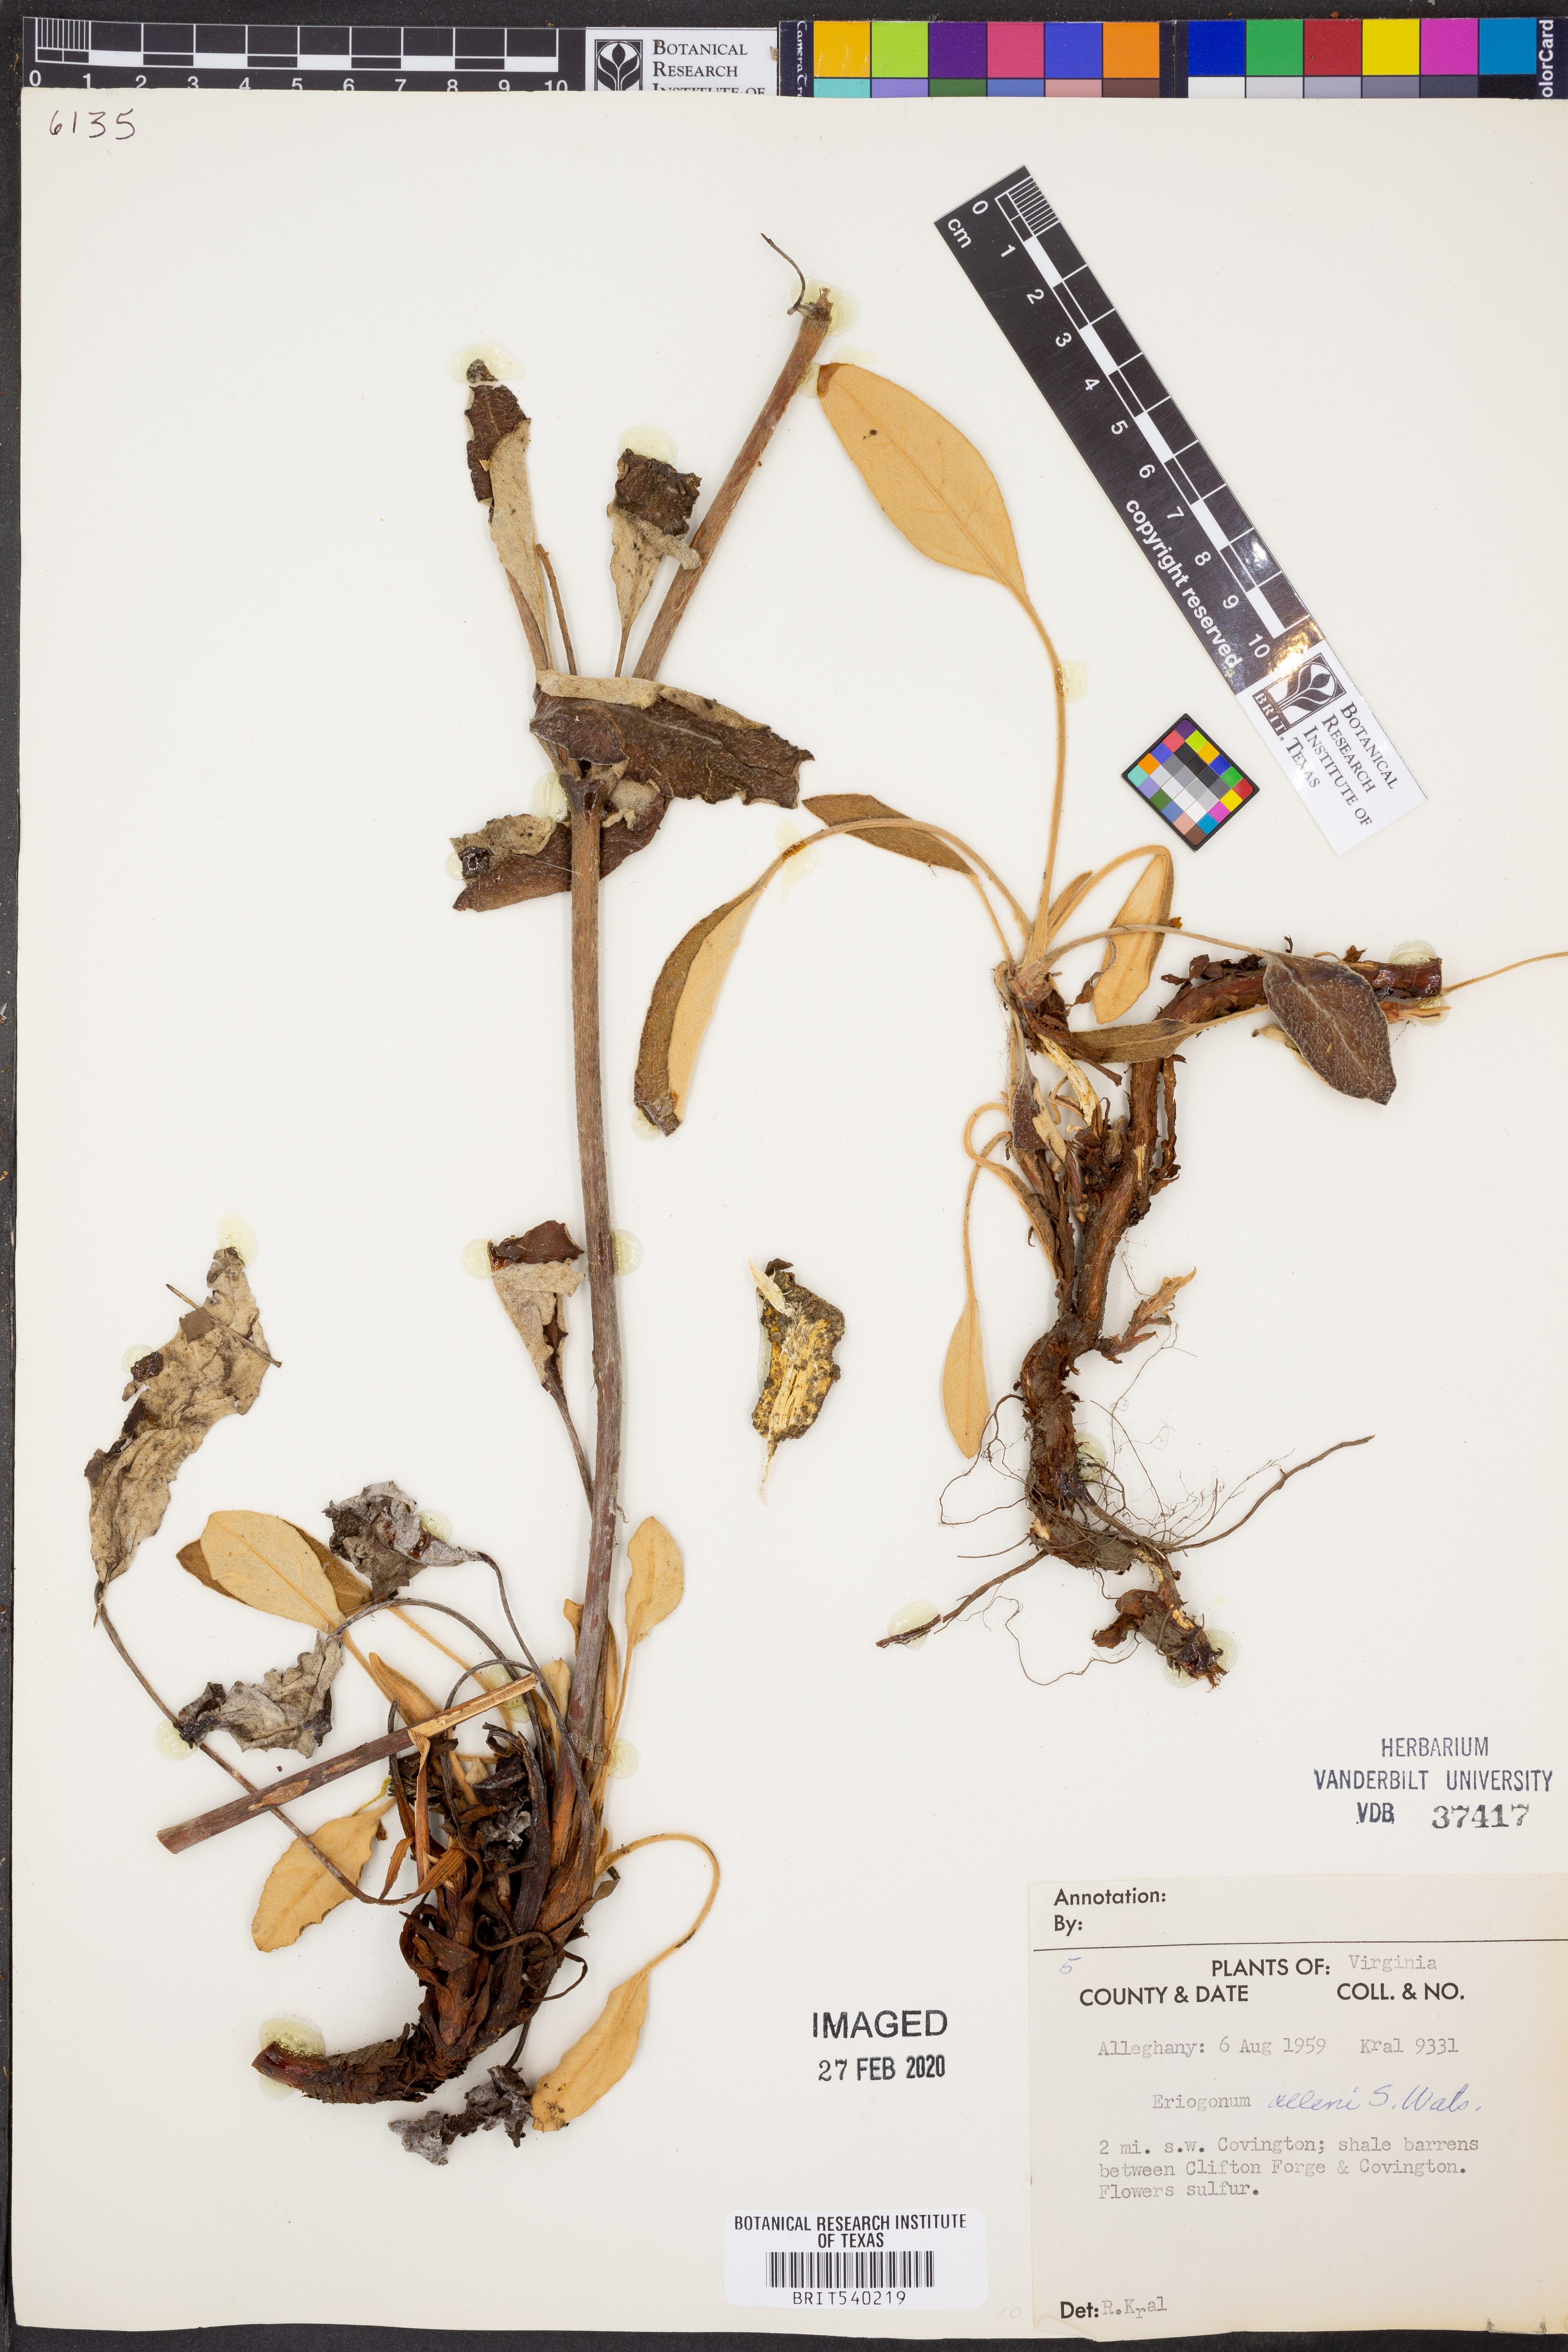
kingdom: Plantae
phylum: Tracheophyta
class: Magnoliopsida
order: Caryophyllales
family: Polygonaceae
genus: Eriogonum
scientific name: Eriogonum allenii
